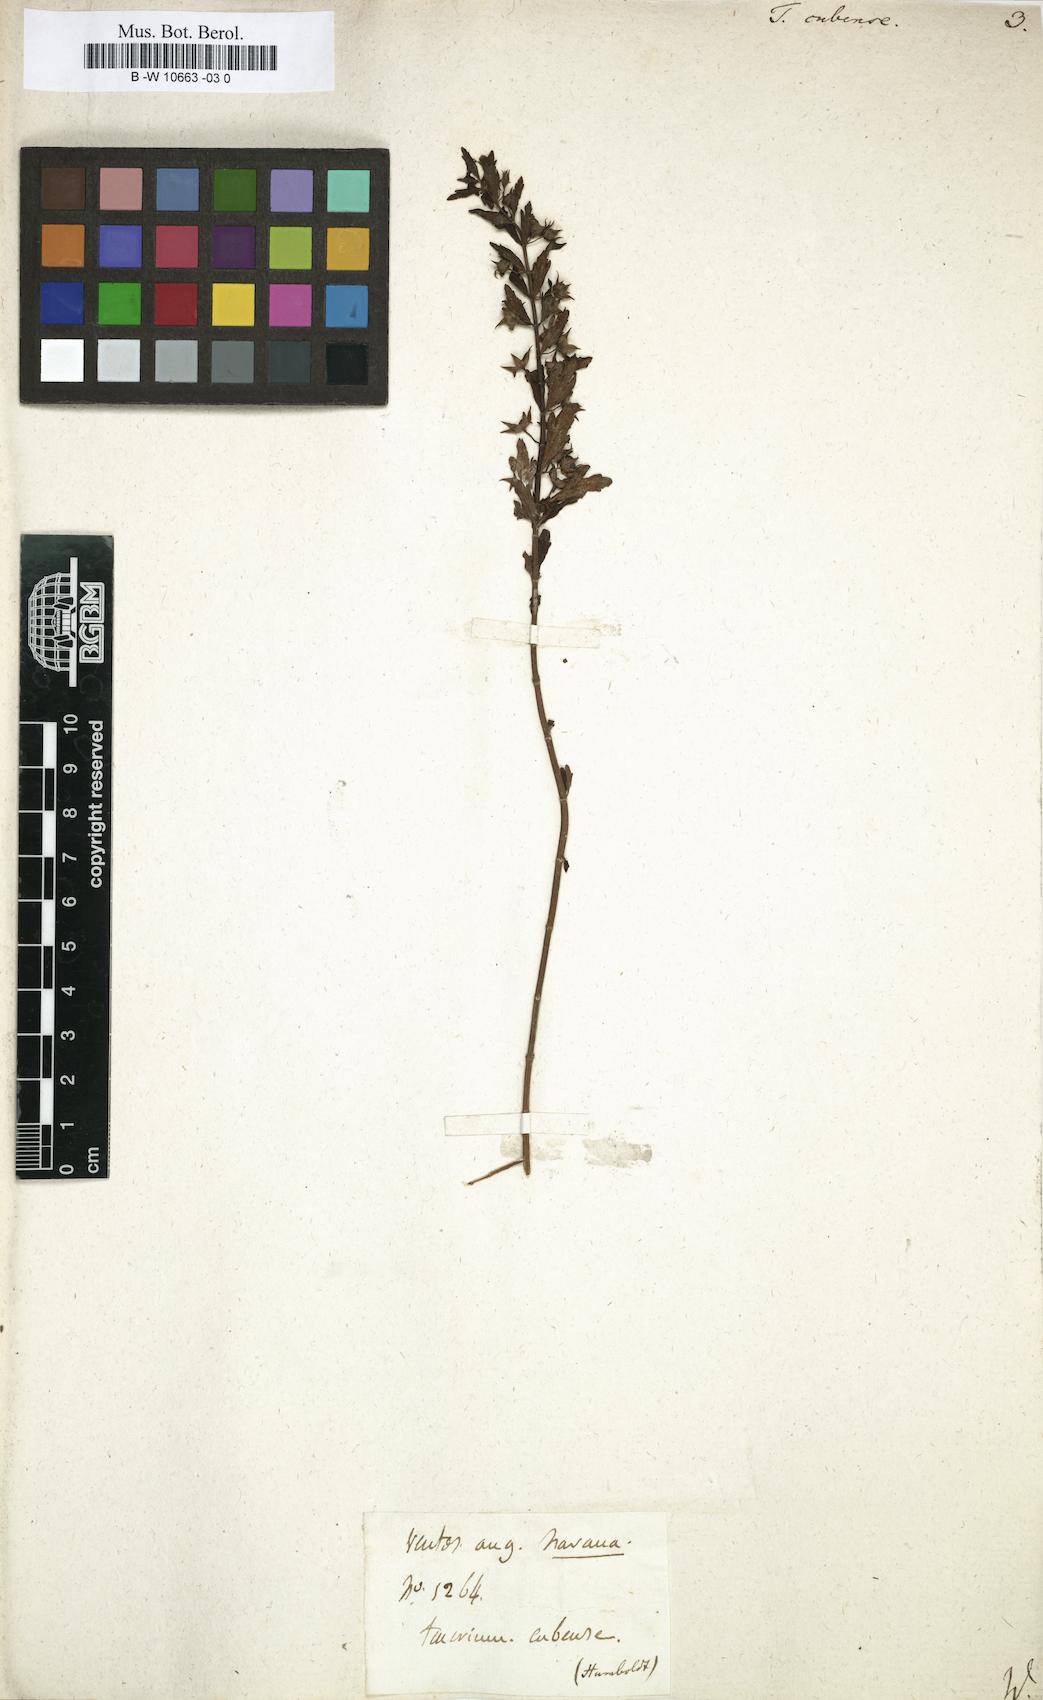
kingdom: Plantae
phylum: Tracheophyta
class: Magnoliopsida
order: Lamiales
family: Lamiaceae
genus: Teucrium
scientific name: Teucrium cubense
